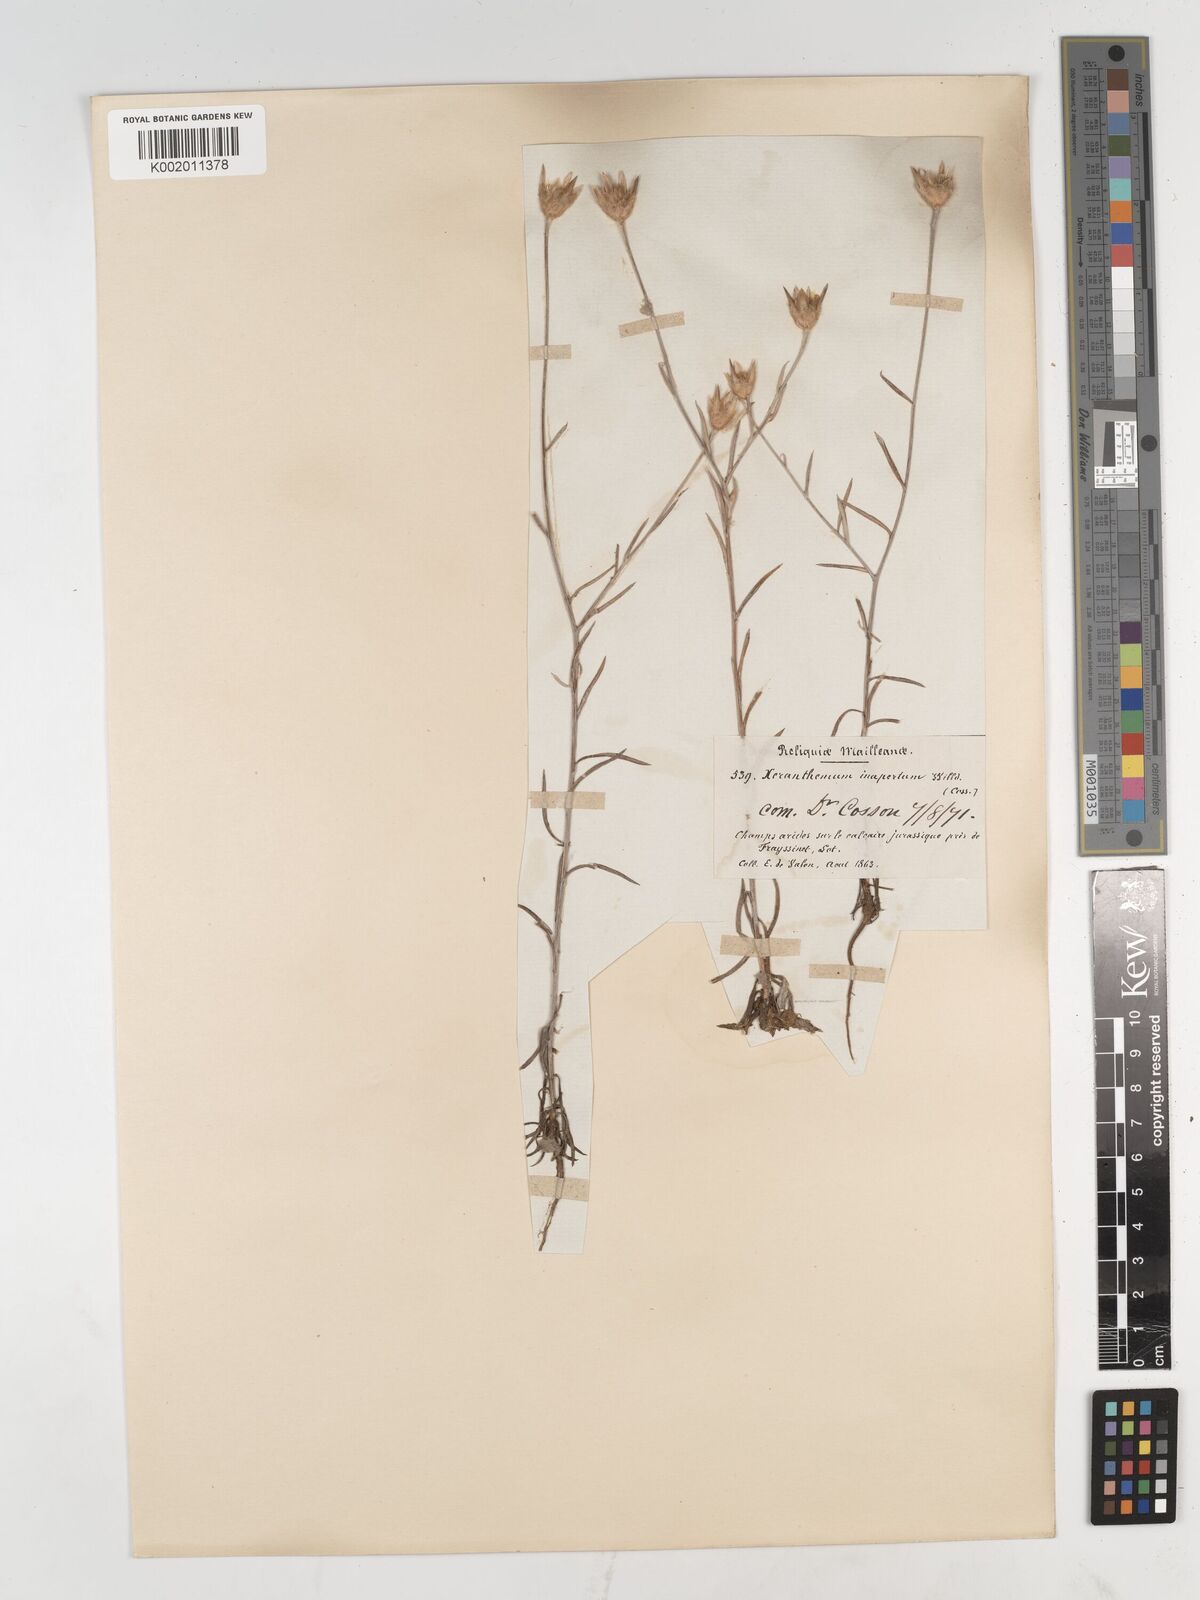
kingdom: Plantae
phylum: Tracheophyta
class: Magnoliopsida
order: Asterales
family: Asteraceae
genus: Xeranthemum
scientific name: Xeranthemum inapertum
